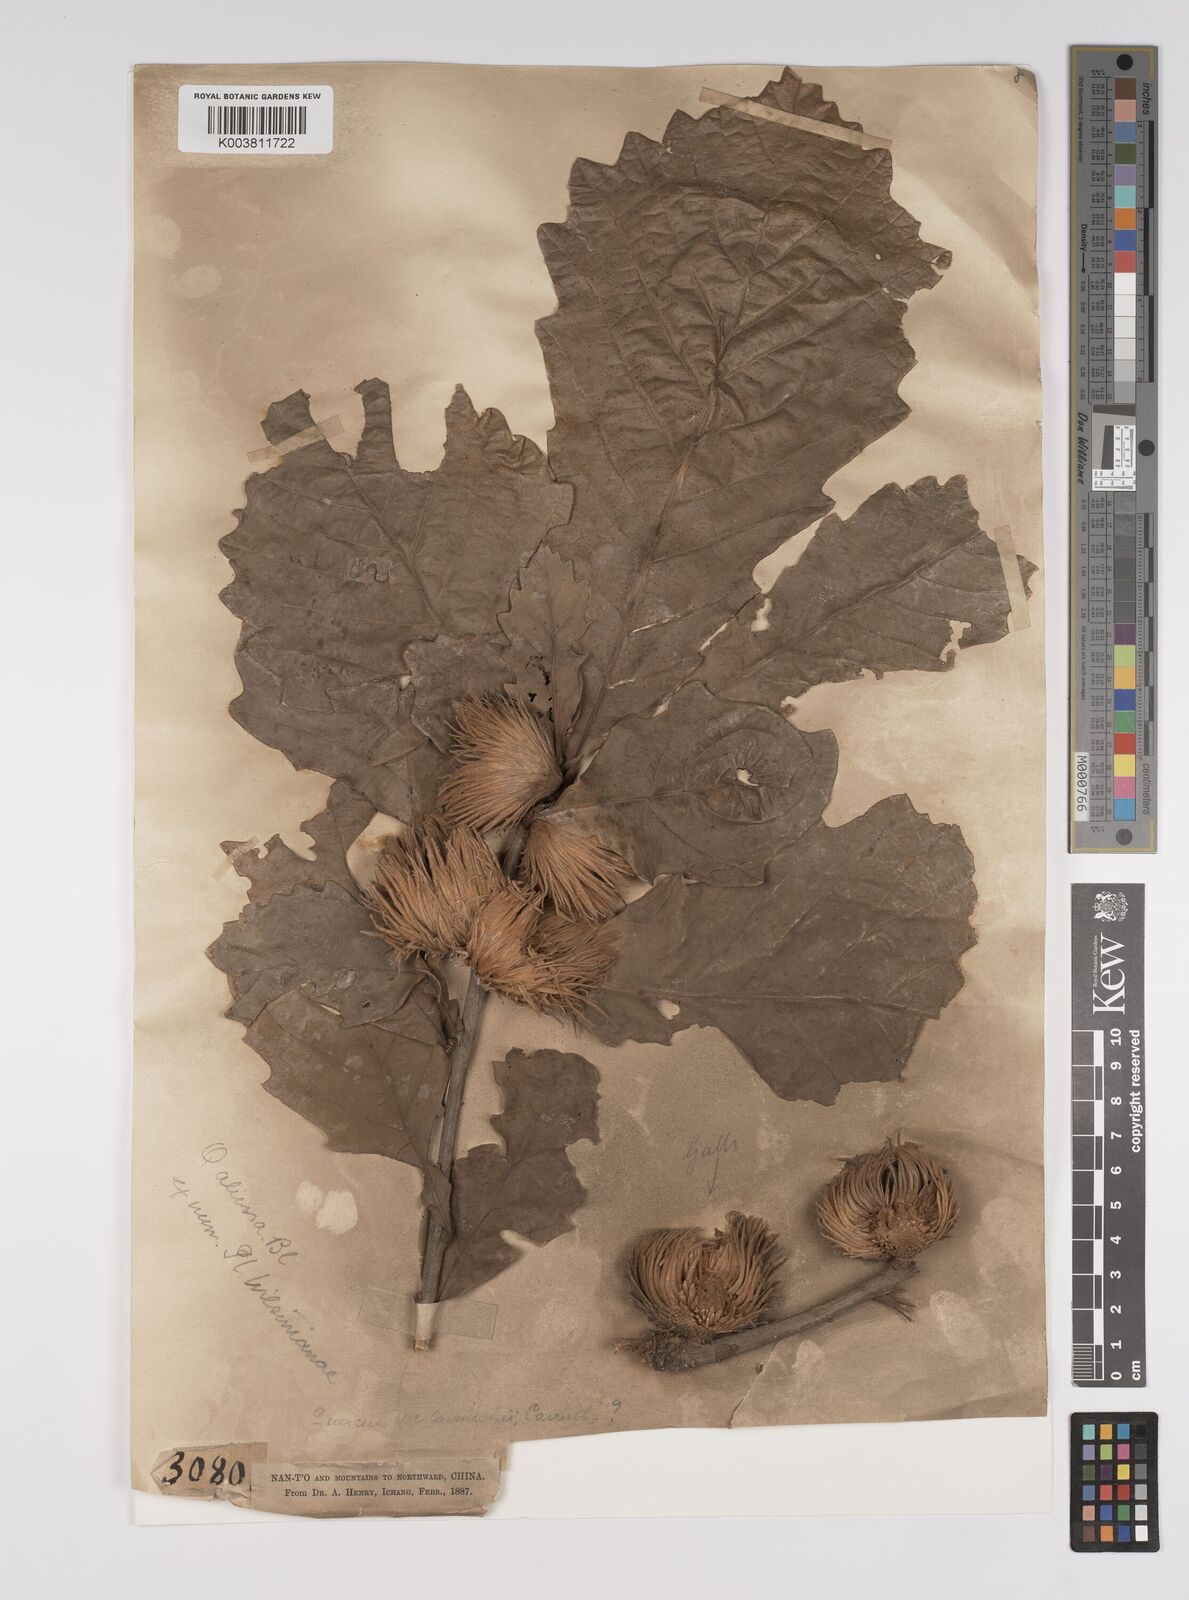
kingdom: Plantae
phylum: Tracheophyta
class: Magnoliopsida
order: Fagales
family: Fagaceae
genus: Quercus
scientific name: Quercus aliena
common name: Oriental white oak
